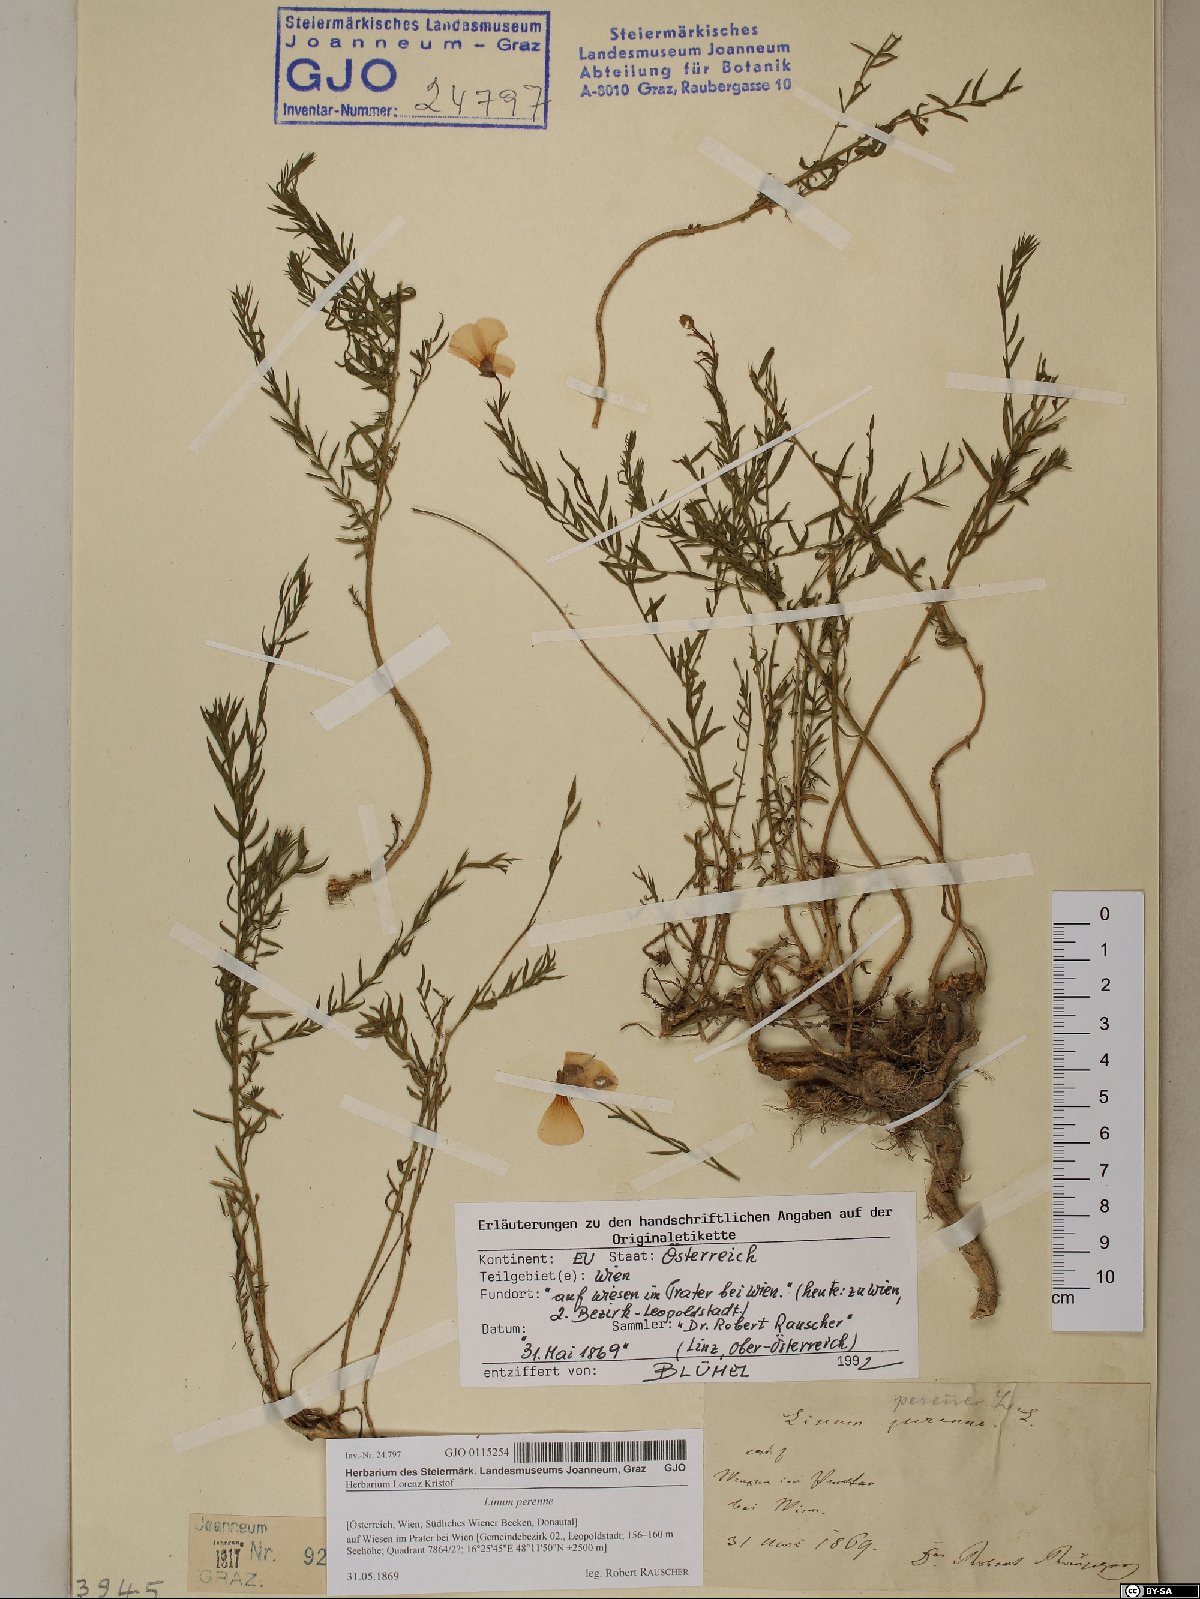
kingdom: Plantae
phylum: Tracheophyta
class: Magnoliopsida
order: Malpighiales
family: Linaceae
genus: Linum
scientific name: Linum perenne
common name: Blue flax
